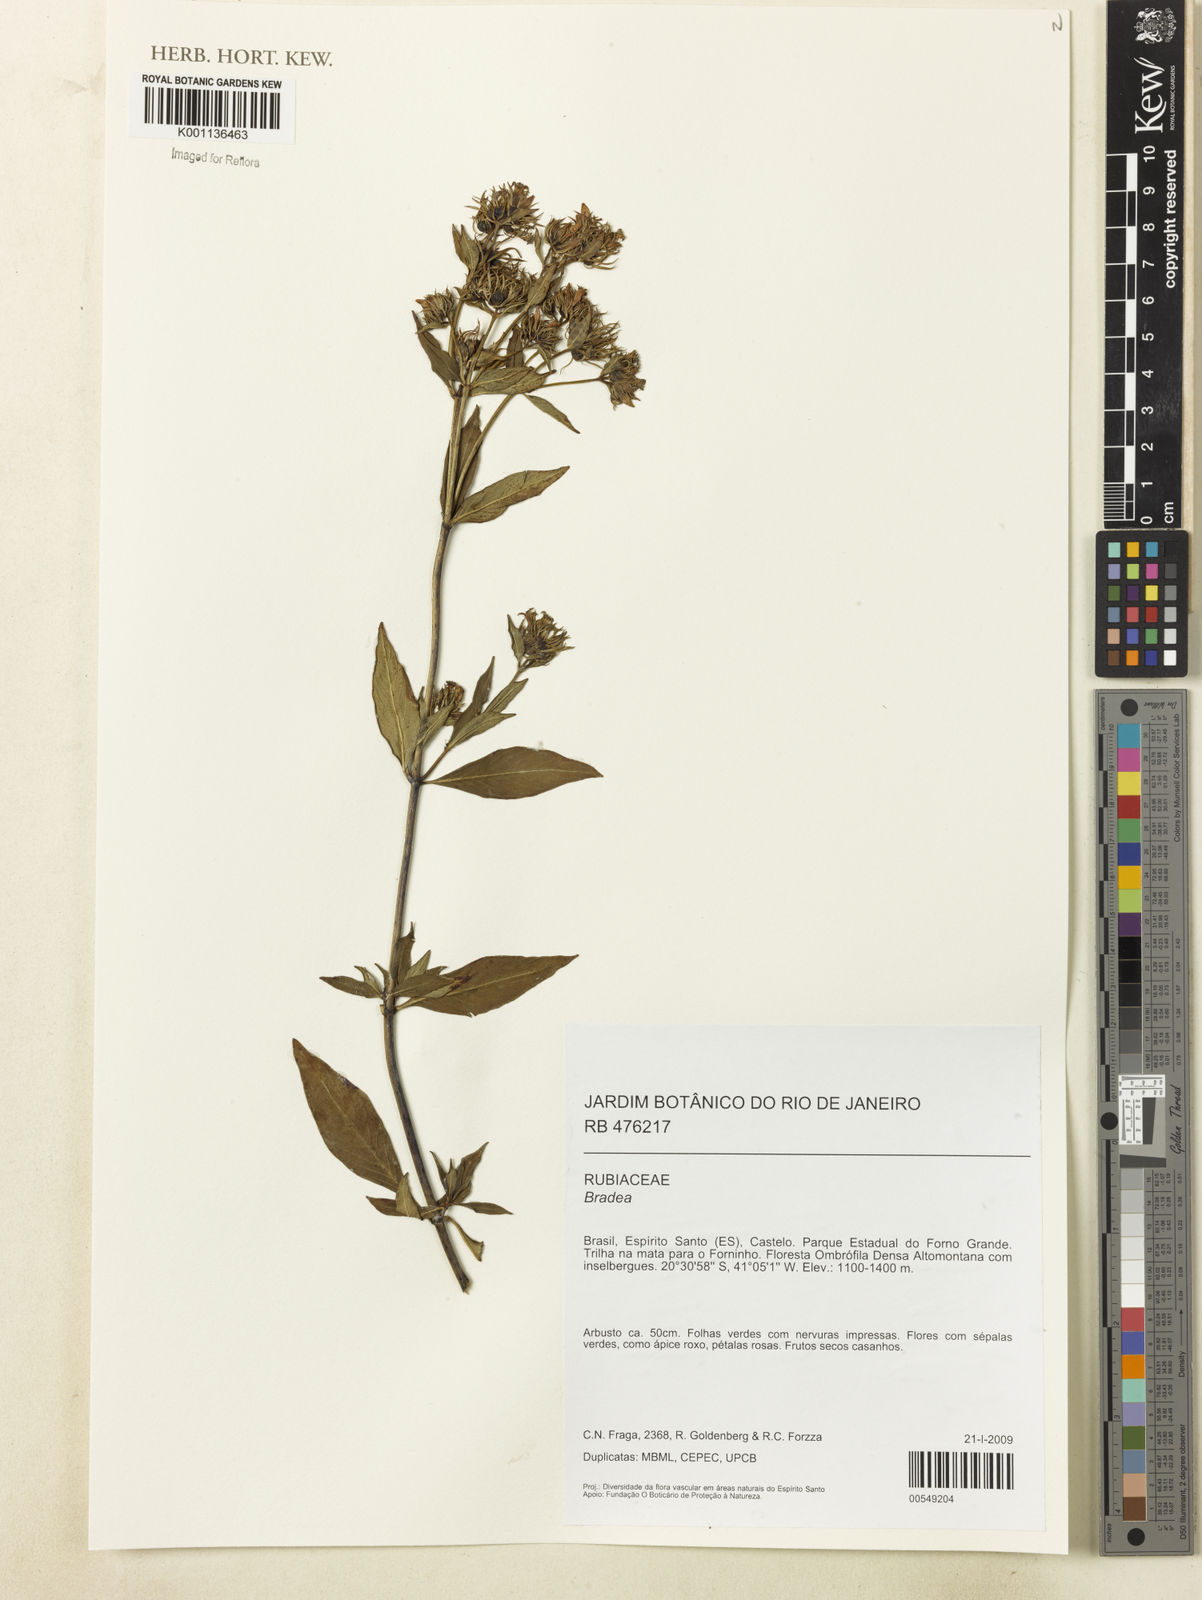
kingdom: Plantae
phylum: Tracheophyta
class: Magnoliopsida
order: Gentianales
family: Rubiaceae
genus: Bradea
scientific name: Bradea
